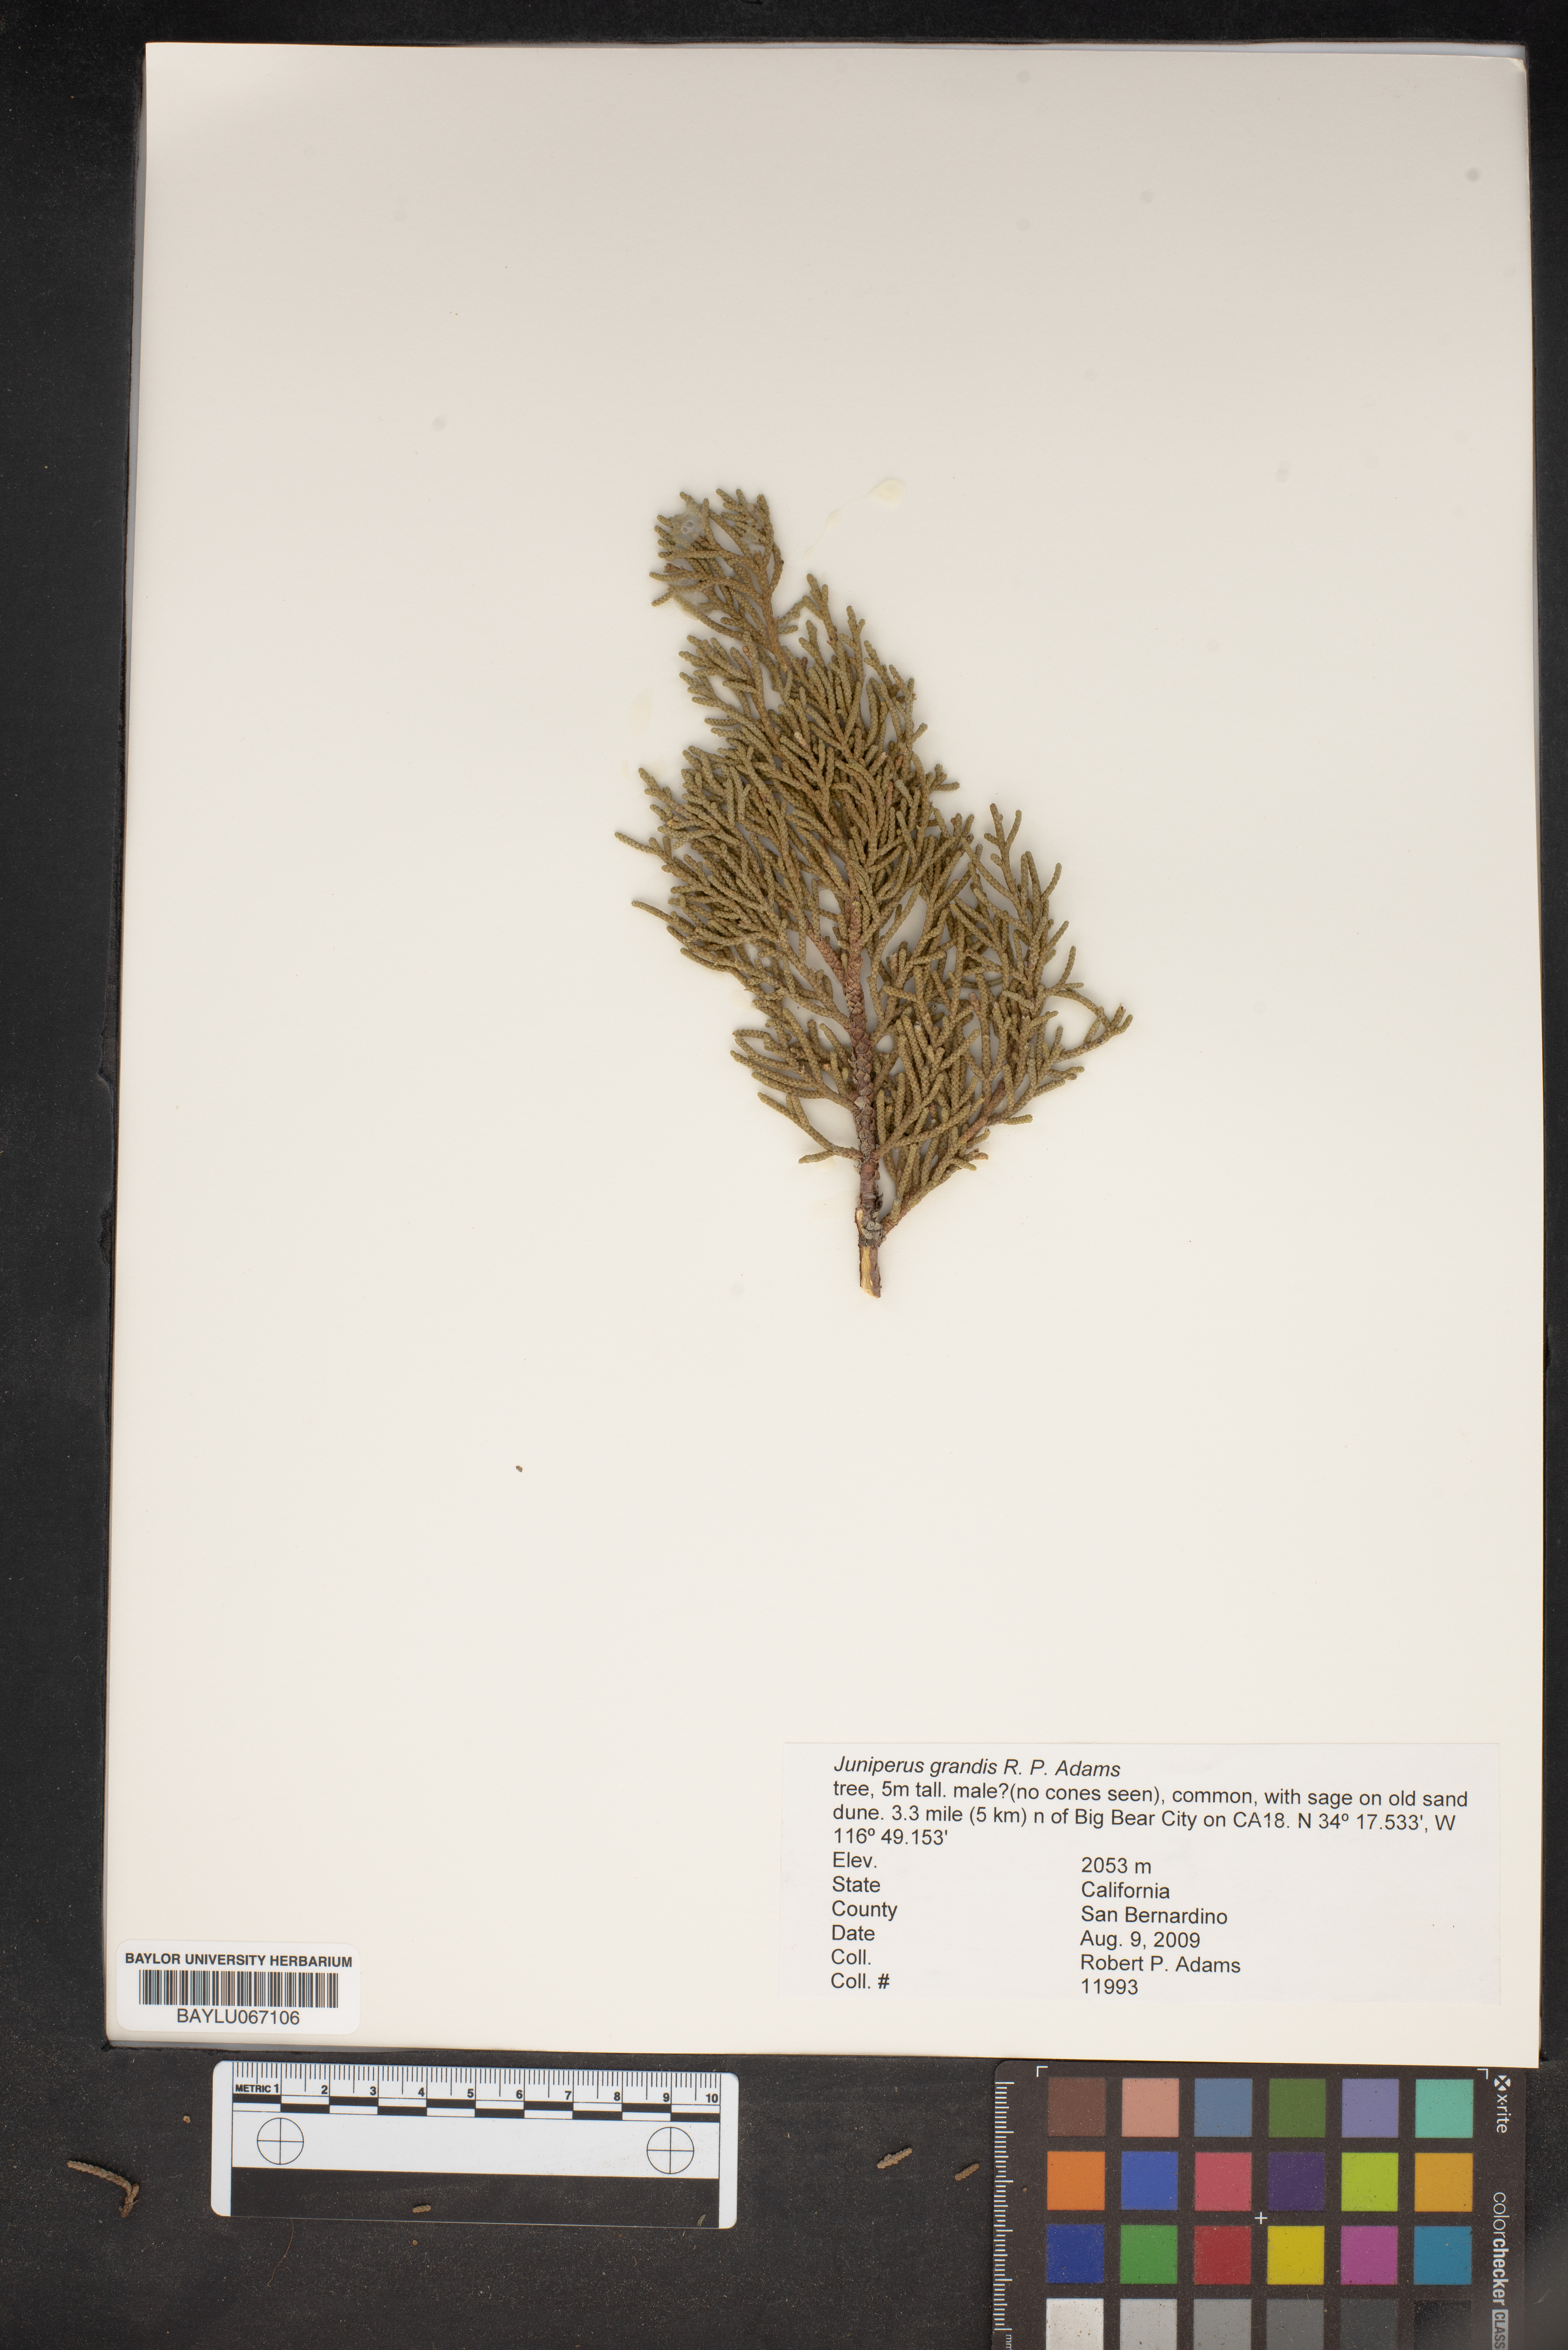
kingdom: Plantae
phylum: Tracheophyta
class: Pinopsida
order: Pinales
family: Cupressaceae
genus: Juniperus
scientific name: Juniperus occidentalis
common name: Western juniper
